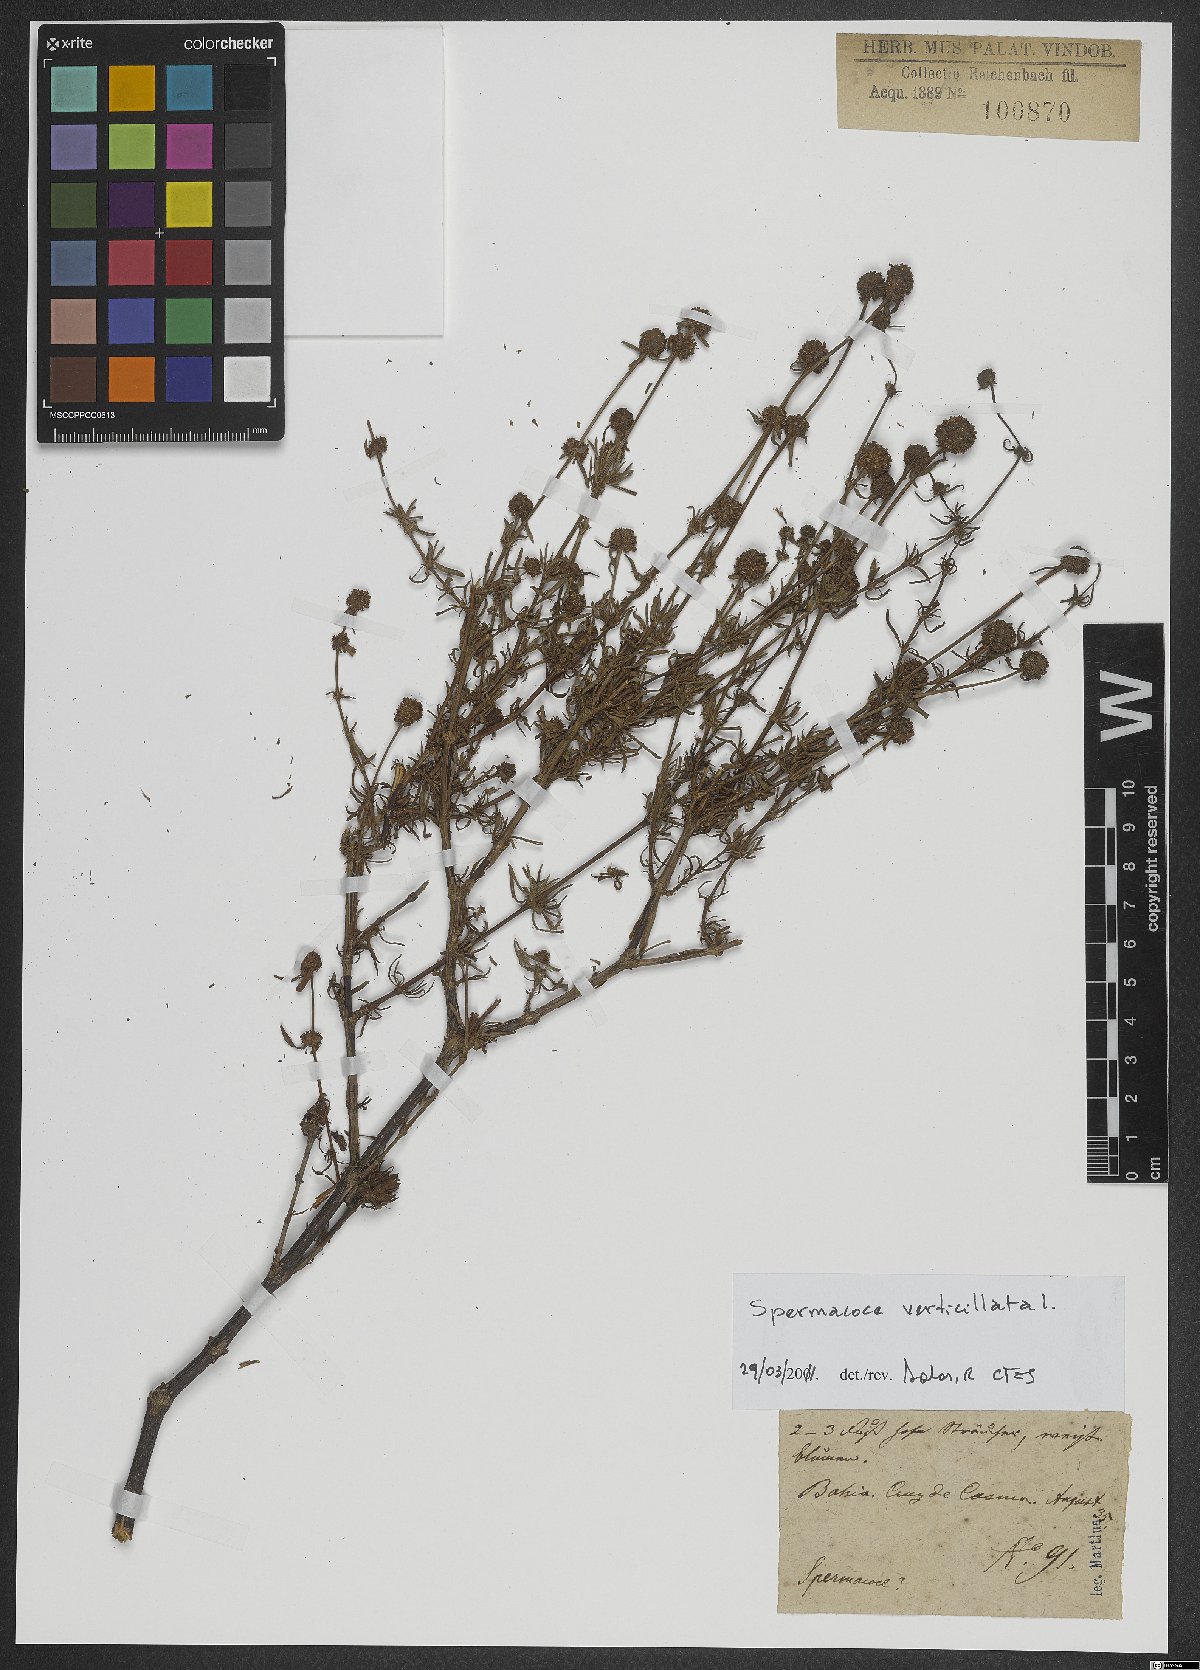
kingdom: Plantae
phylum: Tracheophyta
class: Magnoliopsida
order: Gentianales
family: Rubiaceae
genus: Spermacoce
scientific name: Spermacoce verticillata
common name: Shrubby false buttonweed
